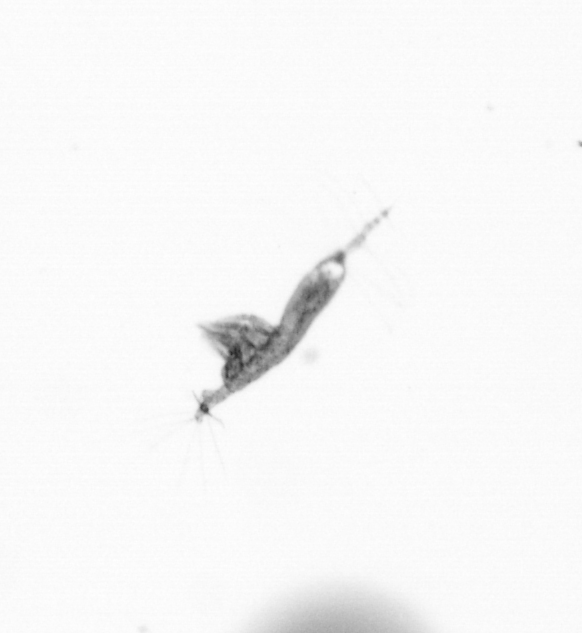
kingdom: Animalia
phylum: Arthropoda
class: Copepoda
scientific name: Copepoda
